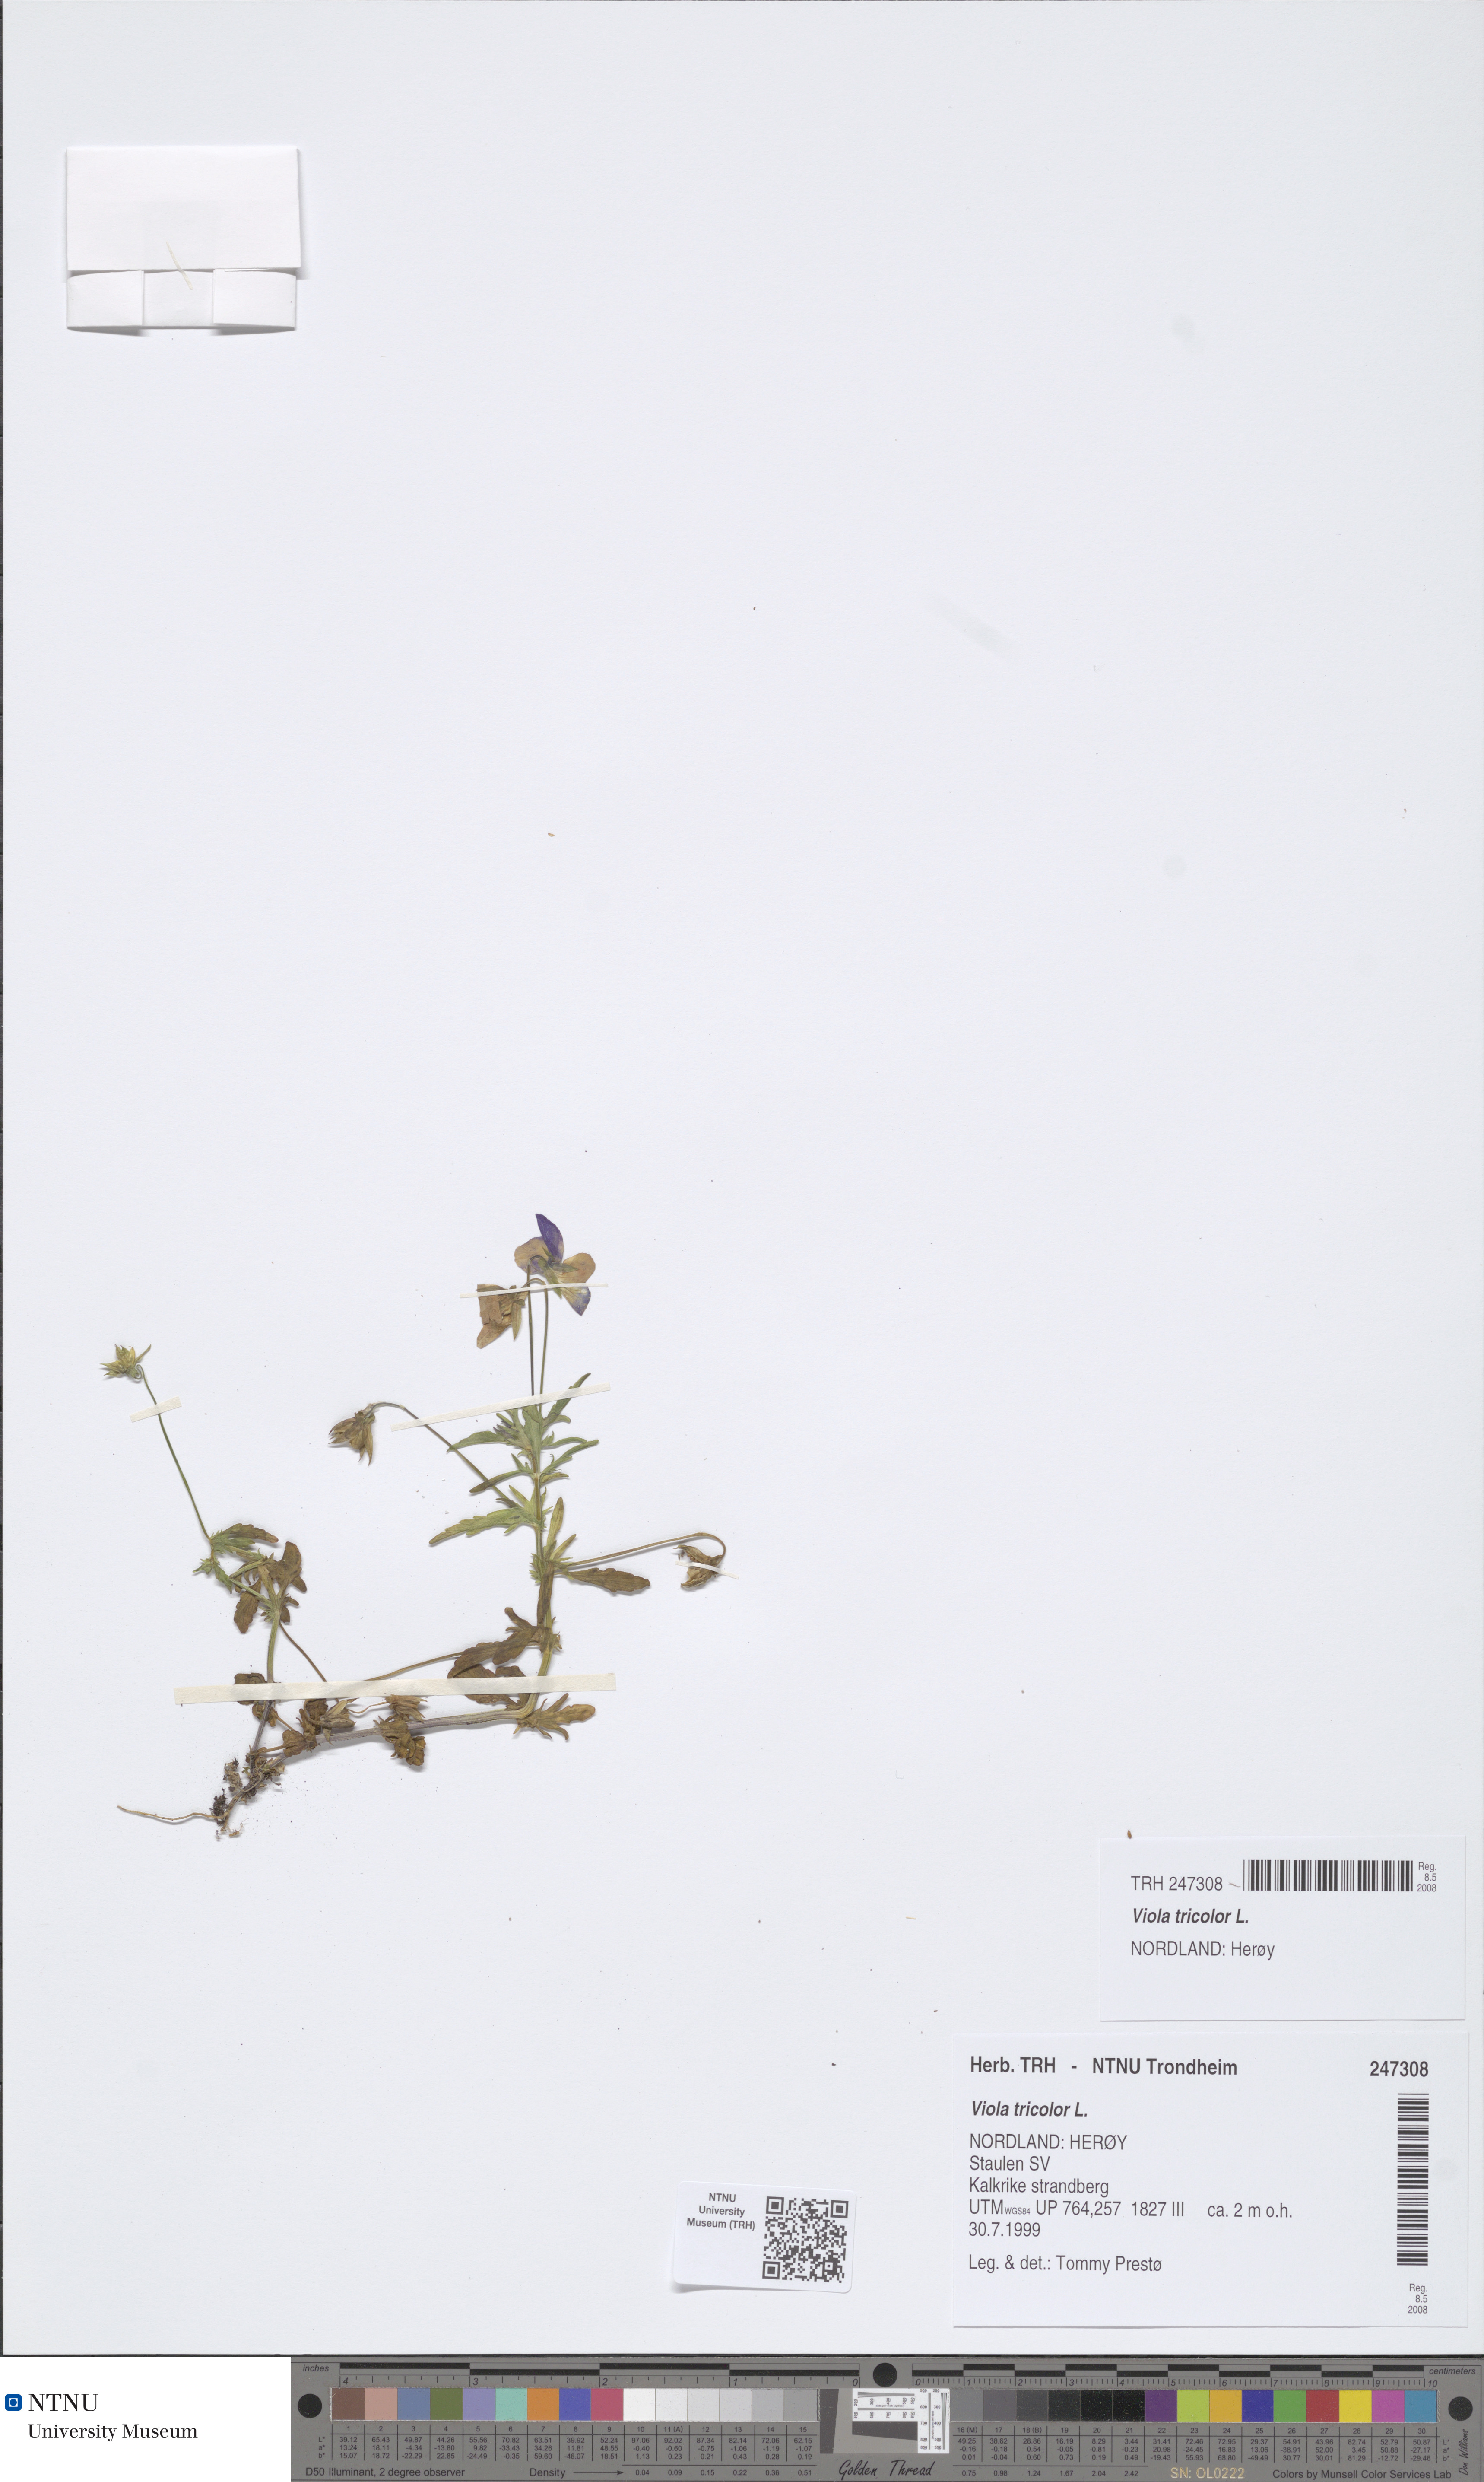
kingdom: Plantae
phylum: Tracheophyta
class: Magnoliopsida
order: Malpighiales
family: Violaceae
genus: Viola
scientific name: Viola tricolor
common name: Pansy
